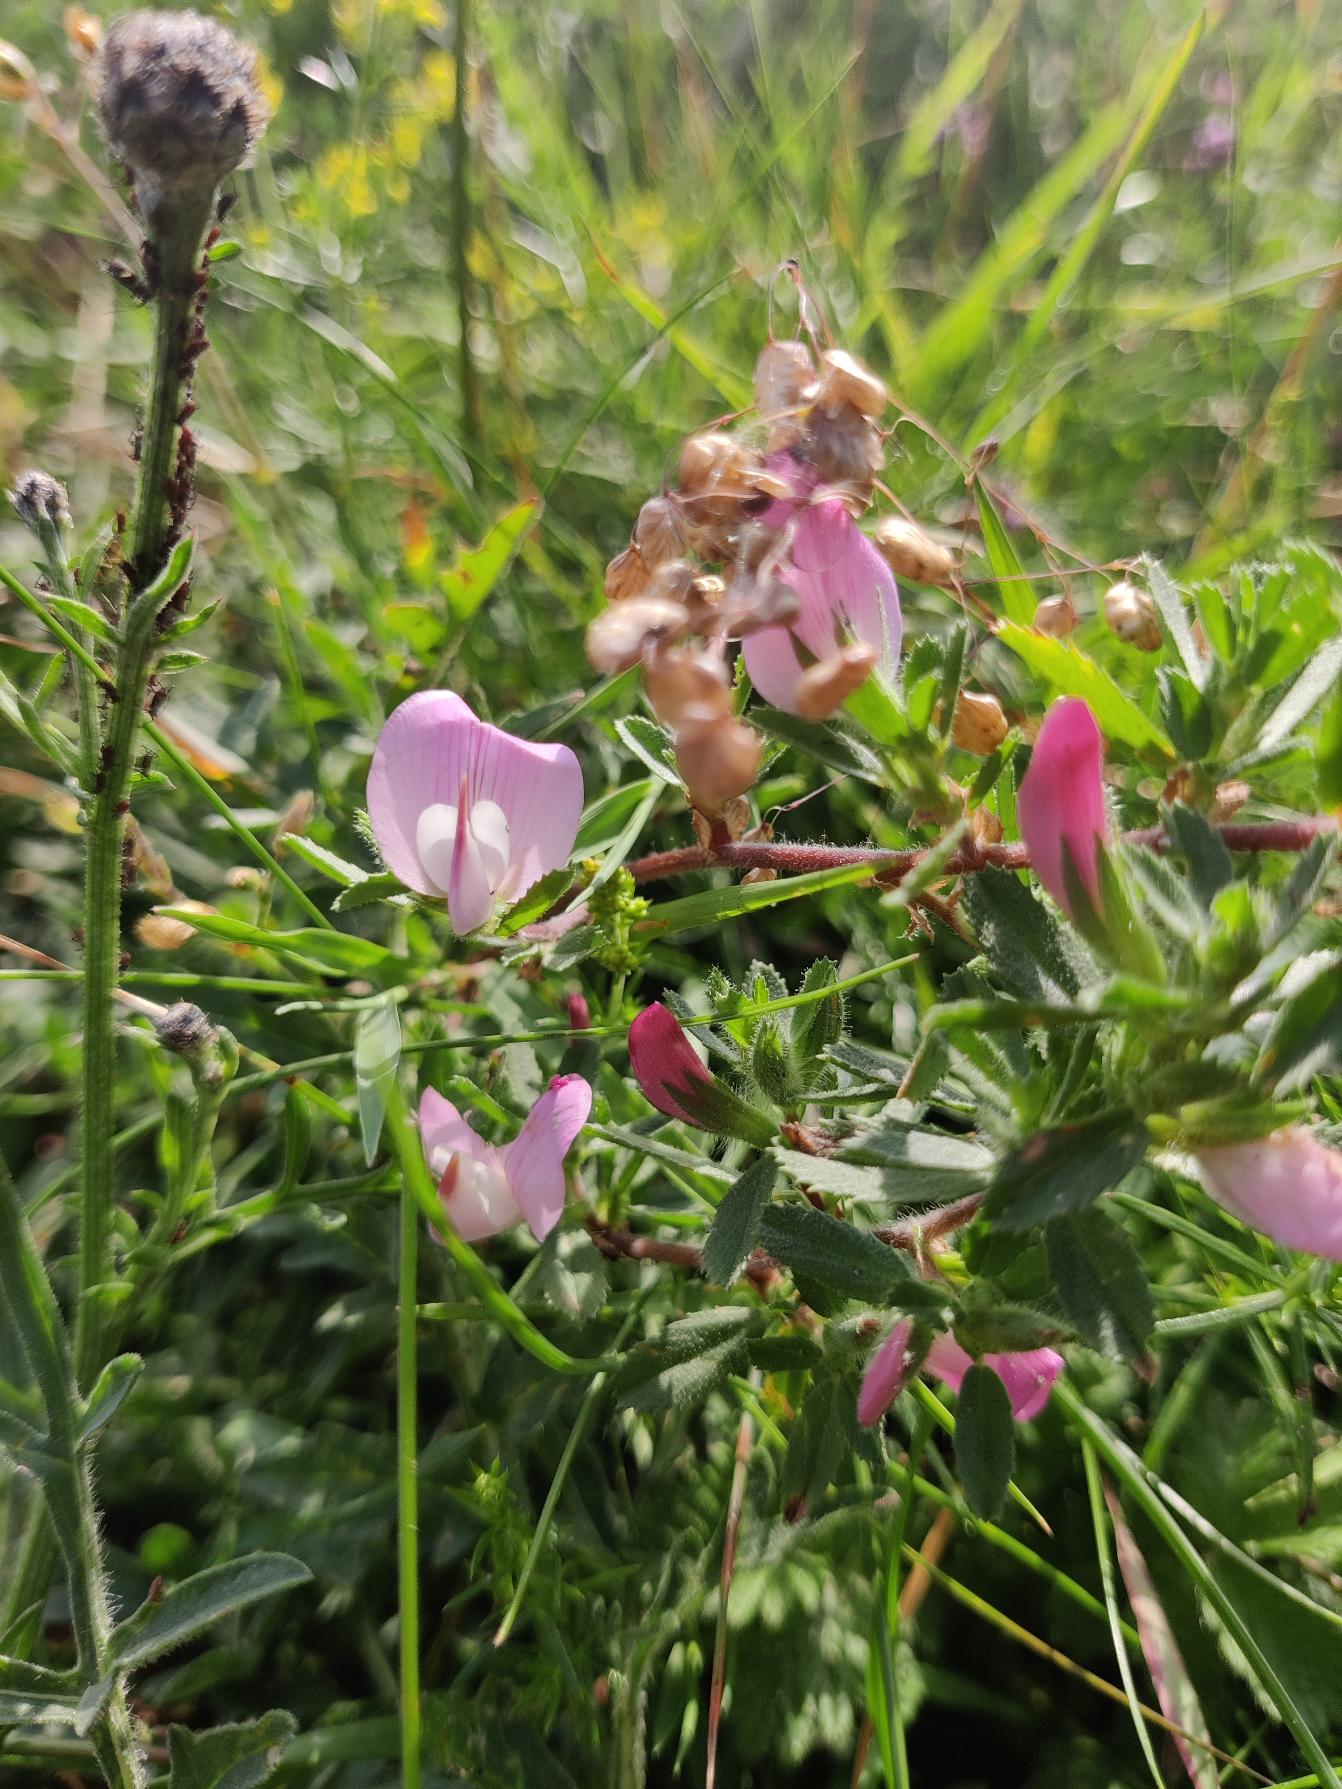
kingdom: Plantae
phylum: Tracheophyta
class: Magnoliopsida
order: Fabales
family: Fabaceae
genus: Ononis
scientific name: Ononis spinosa
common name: Mark-krageklo
